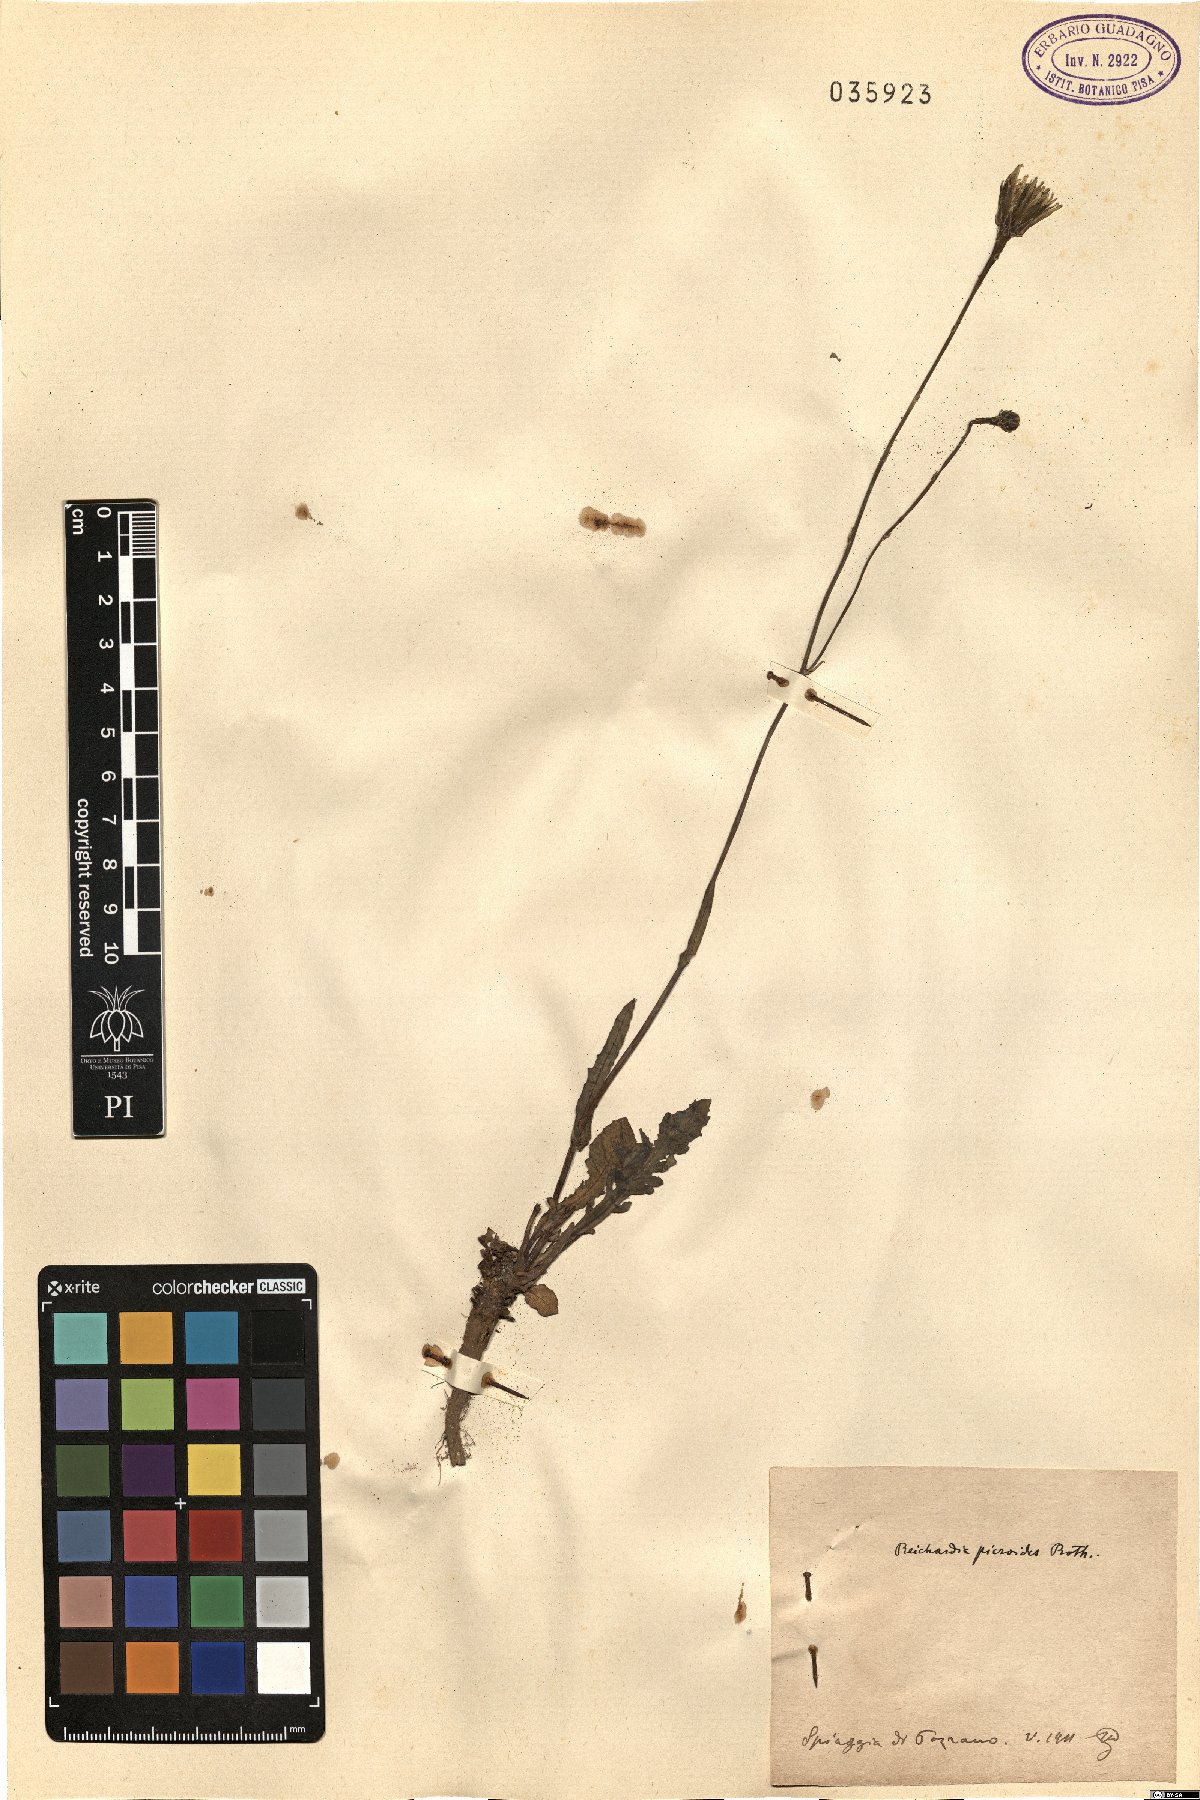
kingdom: Plantae
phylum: Tracheophyta
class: Magnoliopsida
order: Asterales
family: Asteraceae
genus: Reichardia
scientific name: Reichardia picroides
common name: Common brighteyes
